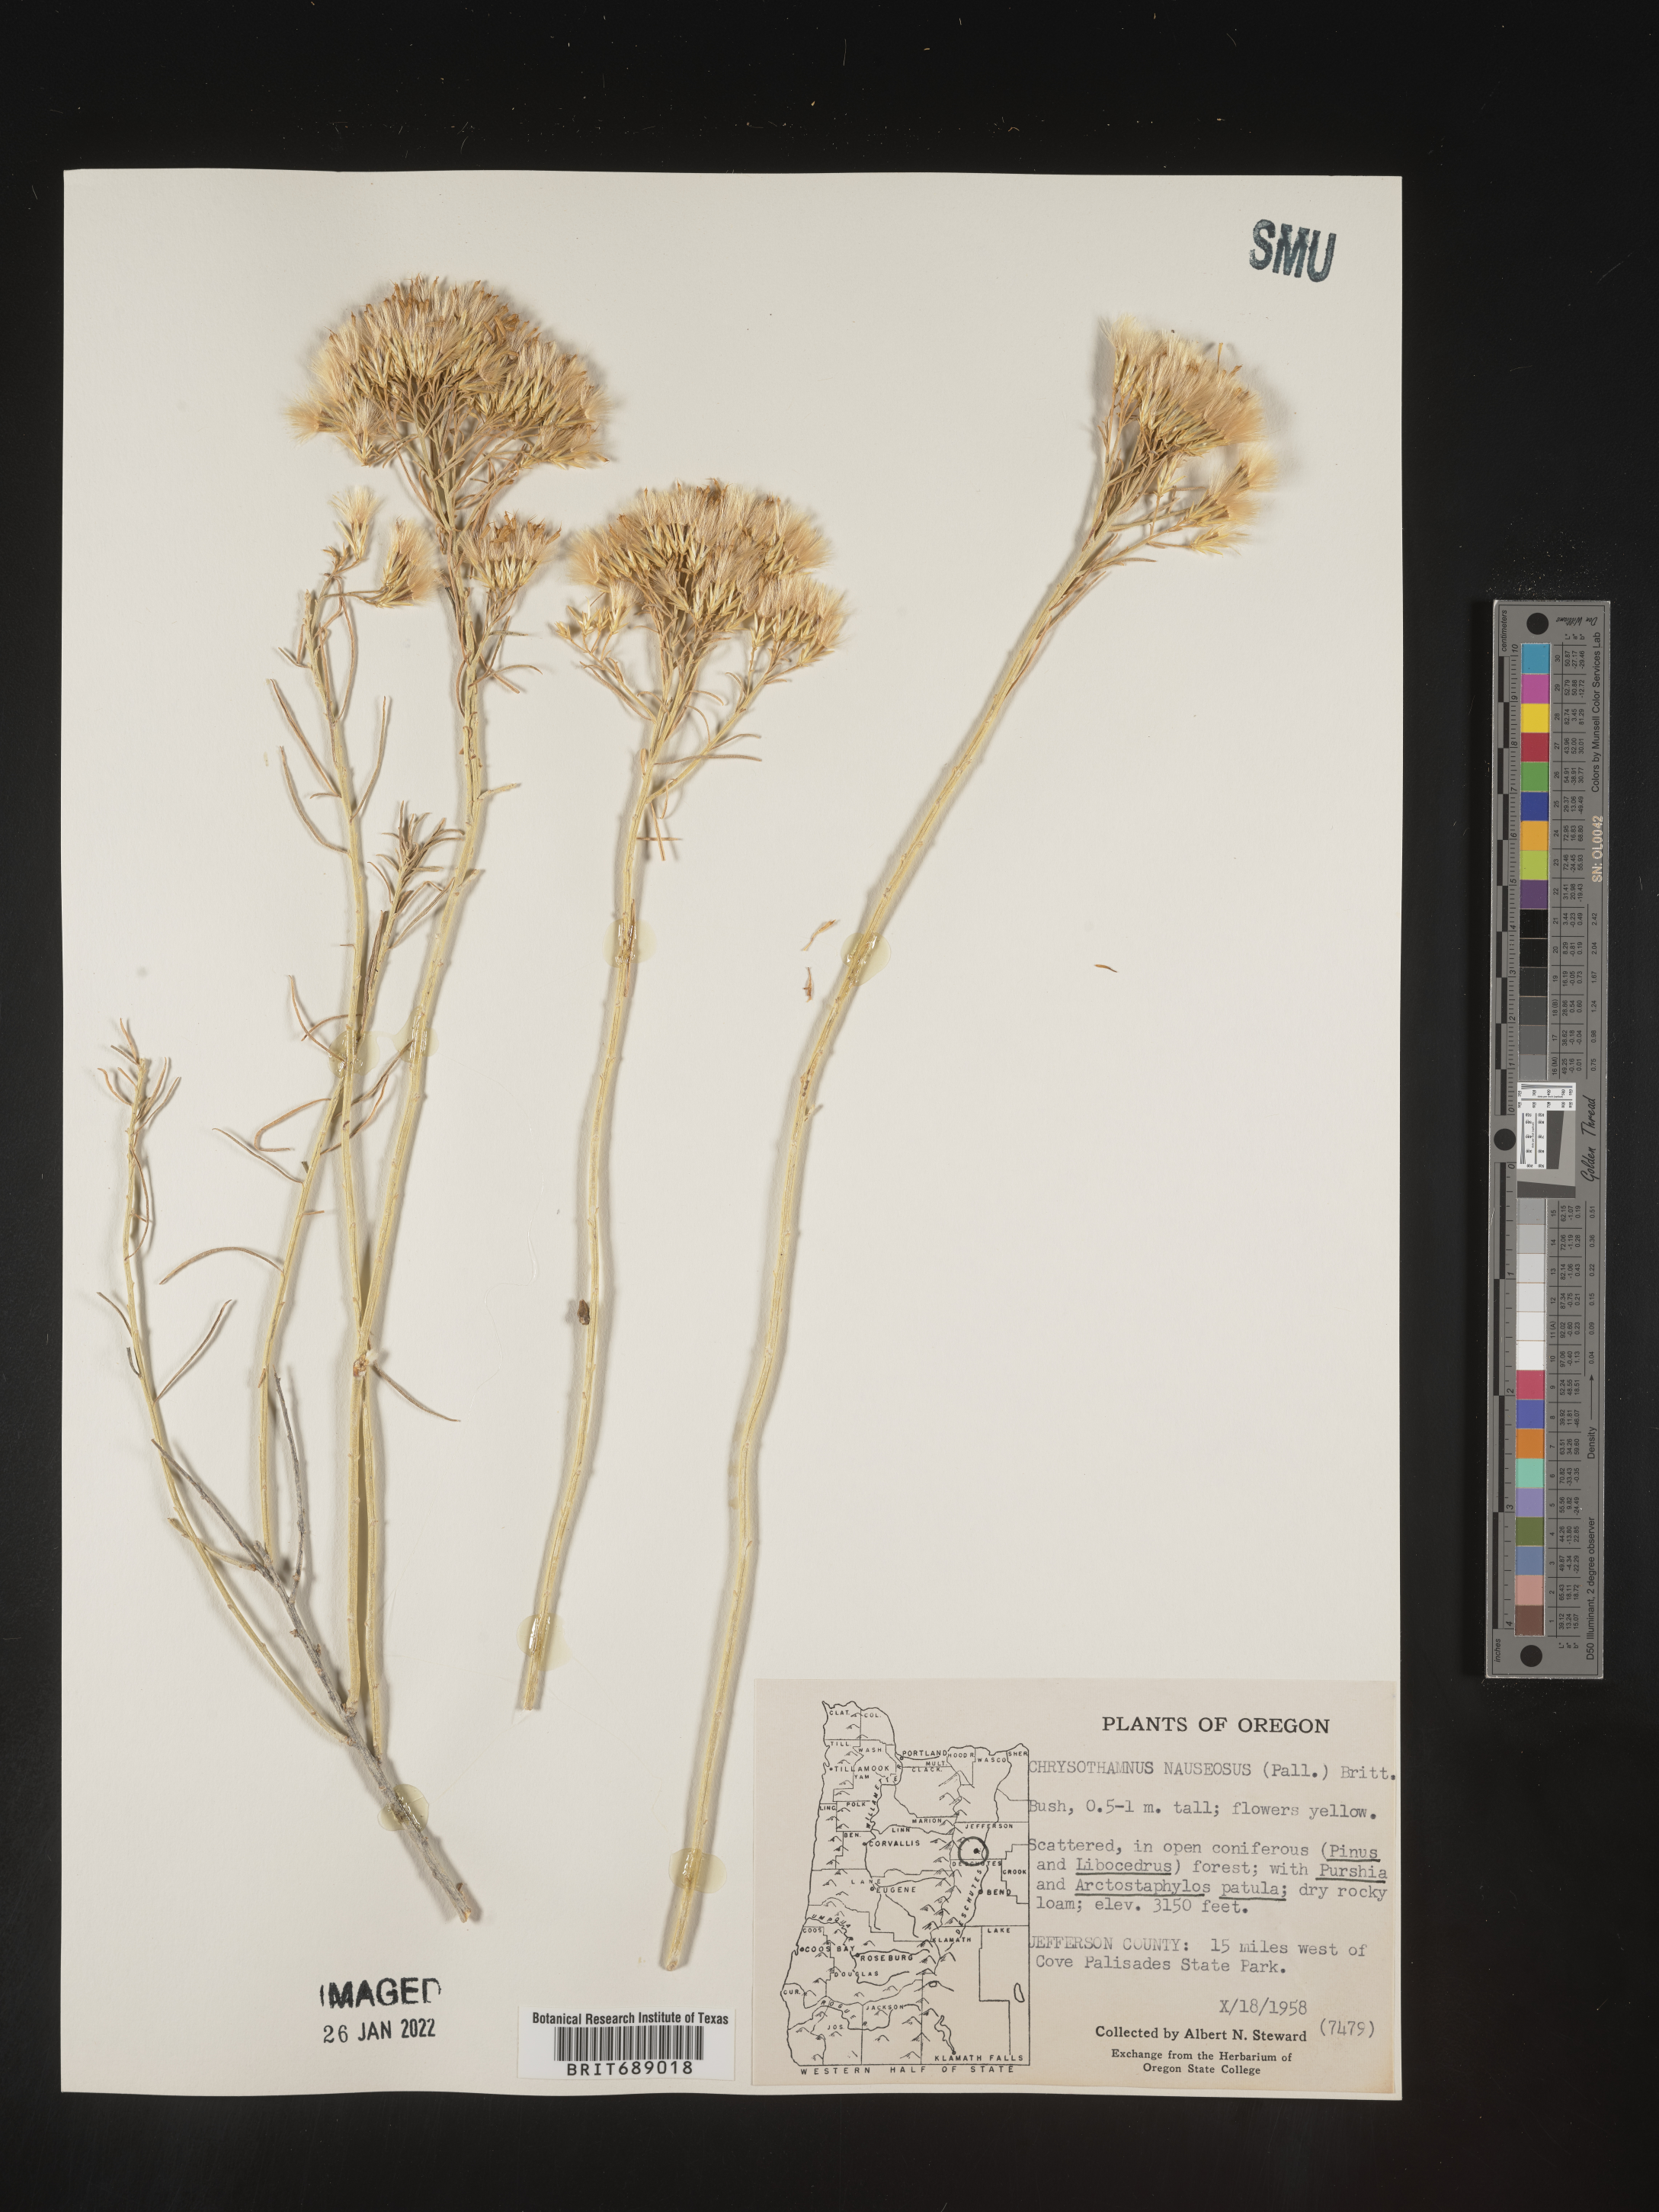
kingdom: Plantae
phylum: Tracheophyta
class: Magnoliopsida
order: Asterales
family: Asteraceae
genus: Ericameria
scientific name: Ericameria nauseosa
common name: Rubber rabbitbrush
